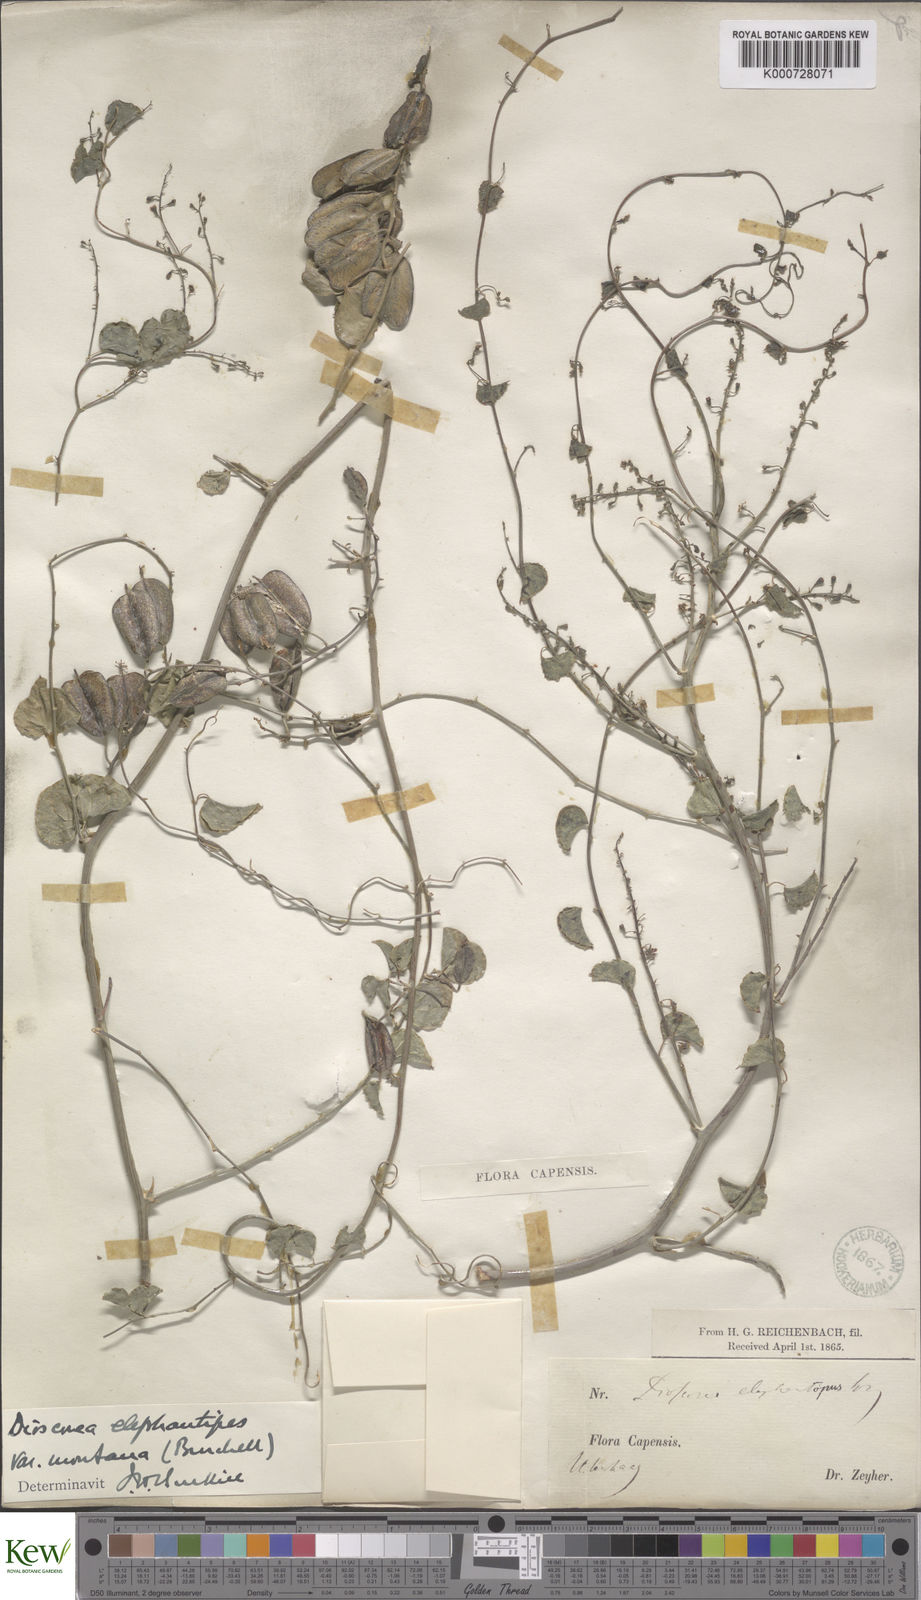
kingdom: Plantae
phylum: Tracheophyta
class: Liliopsida
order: Dioscoreales
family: Dioscoreaceae
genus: Dioscorea
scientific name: Dioscorea
